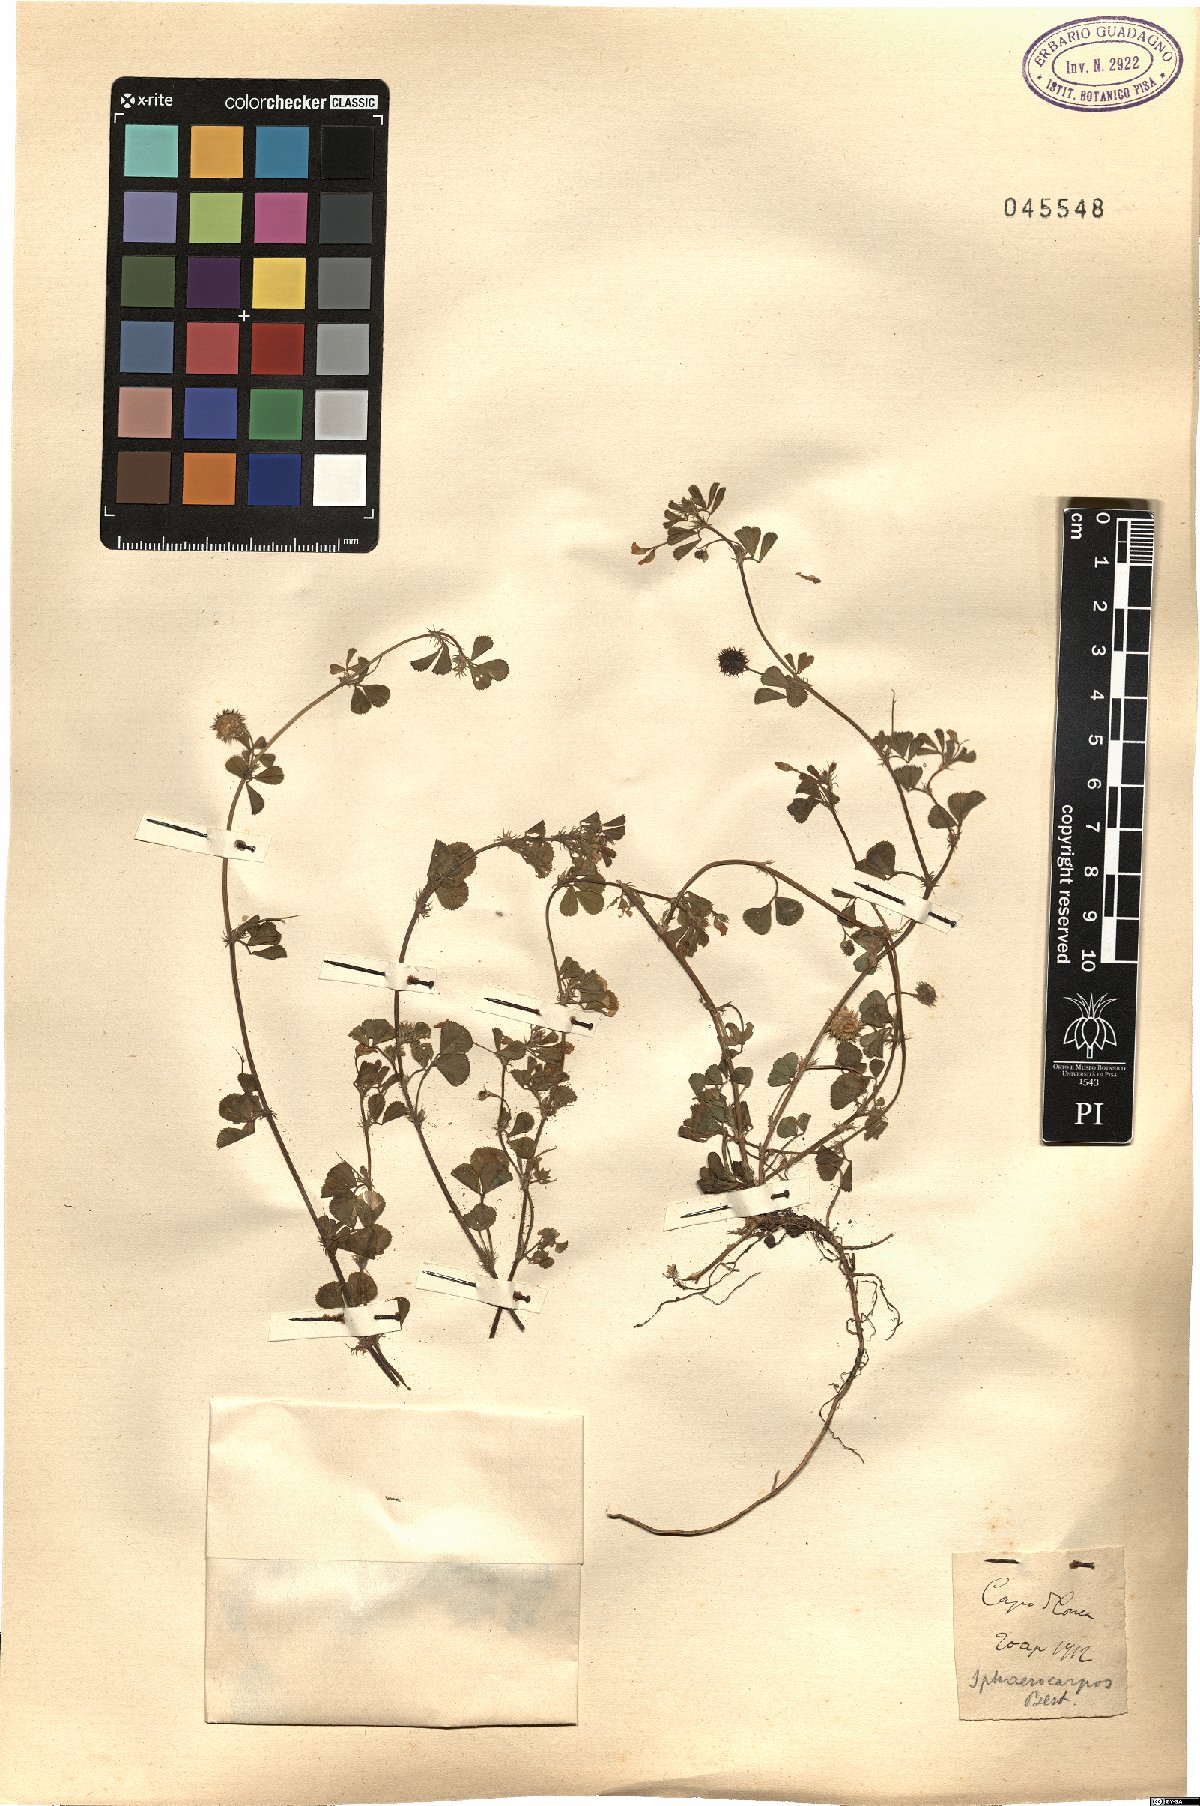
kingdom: Plantae
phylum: Tracheophyta
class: Magnoliopsida
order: Fabales
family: Fabaceae
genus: Medicago
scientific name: Medicago sphaerocarpos
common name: Sphere medic
